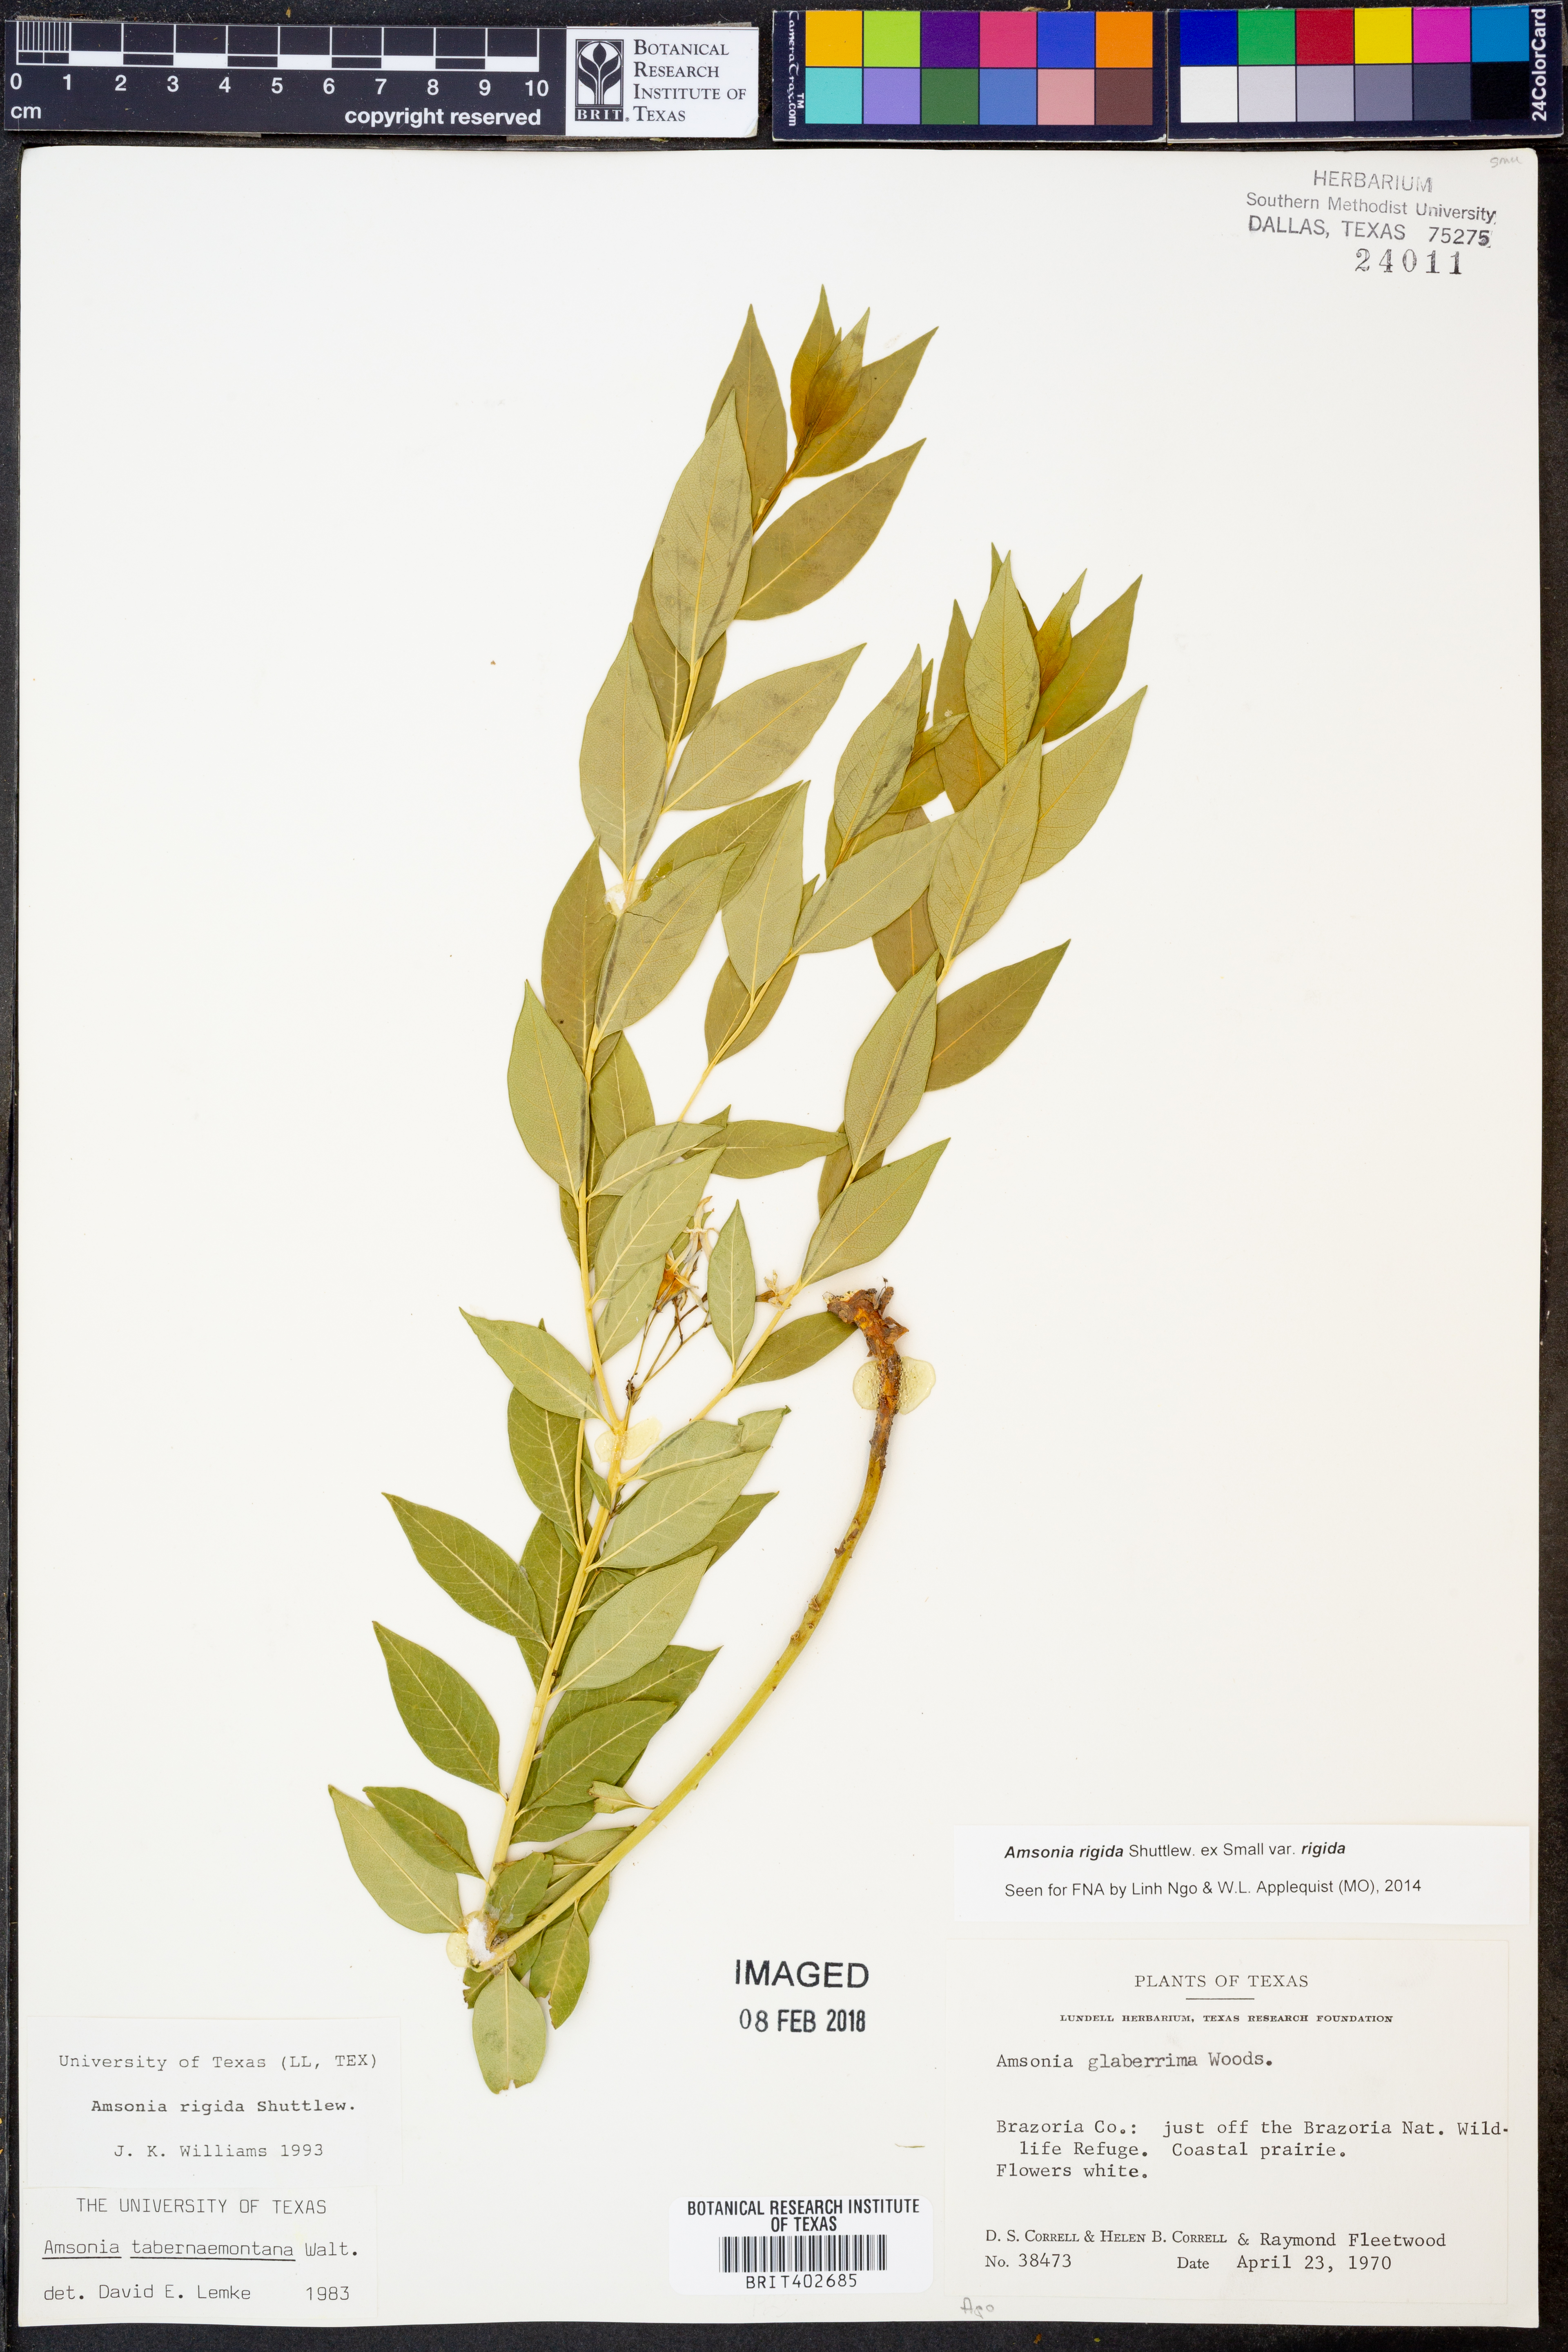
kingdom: Plantae
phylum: Tracheophyta
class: Magnoliopsida
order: Gentianales
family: Apocynaceae
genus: Amsonia
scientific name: Amsonia rigida
